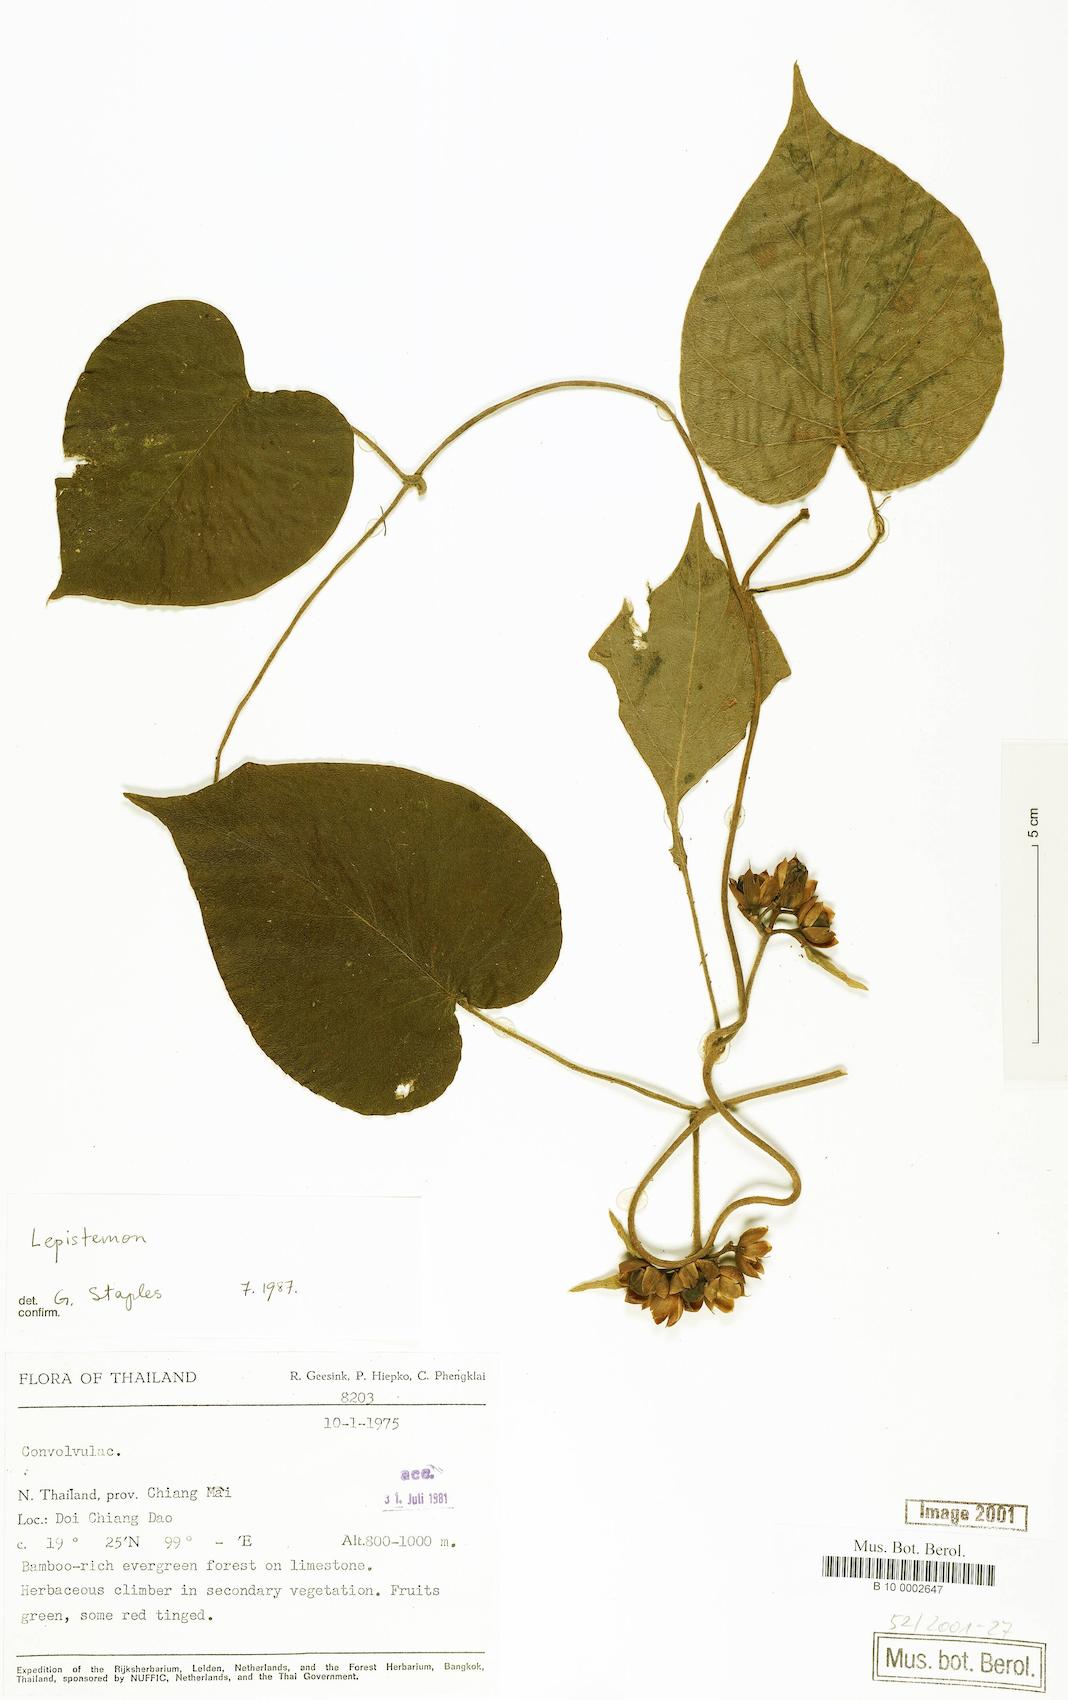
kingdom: Plantae
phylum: Tracheophyta
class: Magnoliopsida
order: Solanales
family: Convolvulaceae
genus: Lepistemon
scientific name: Lepistemon
